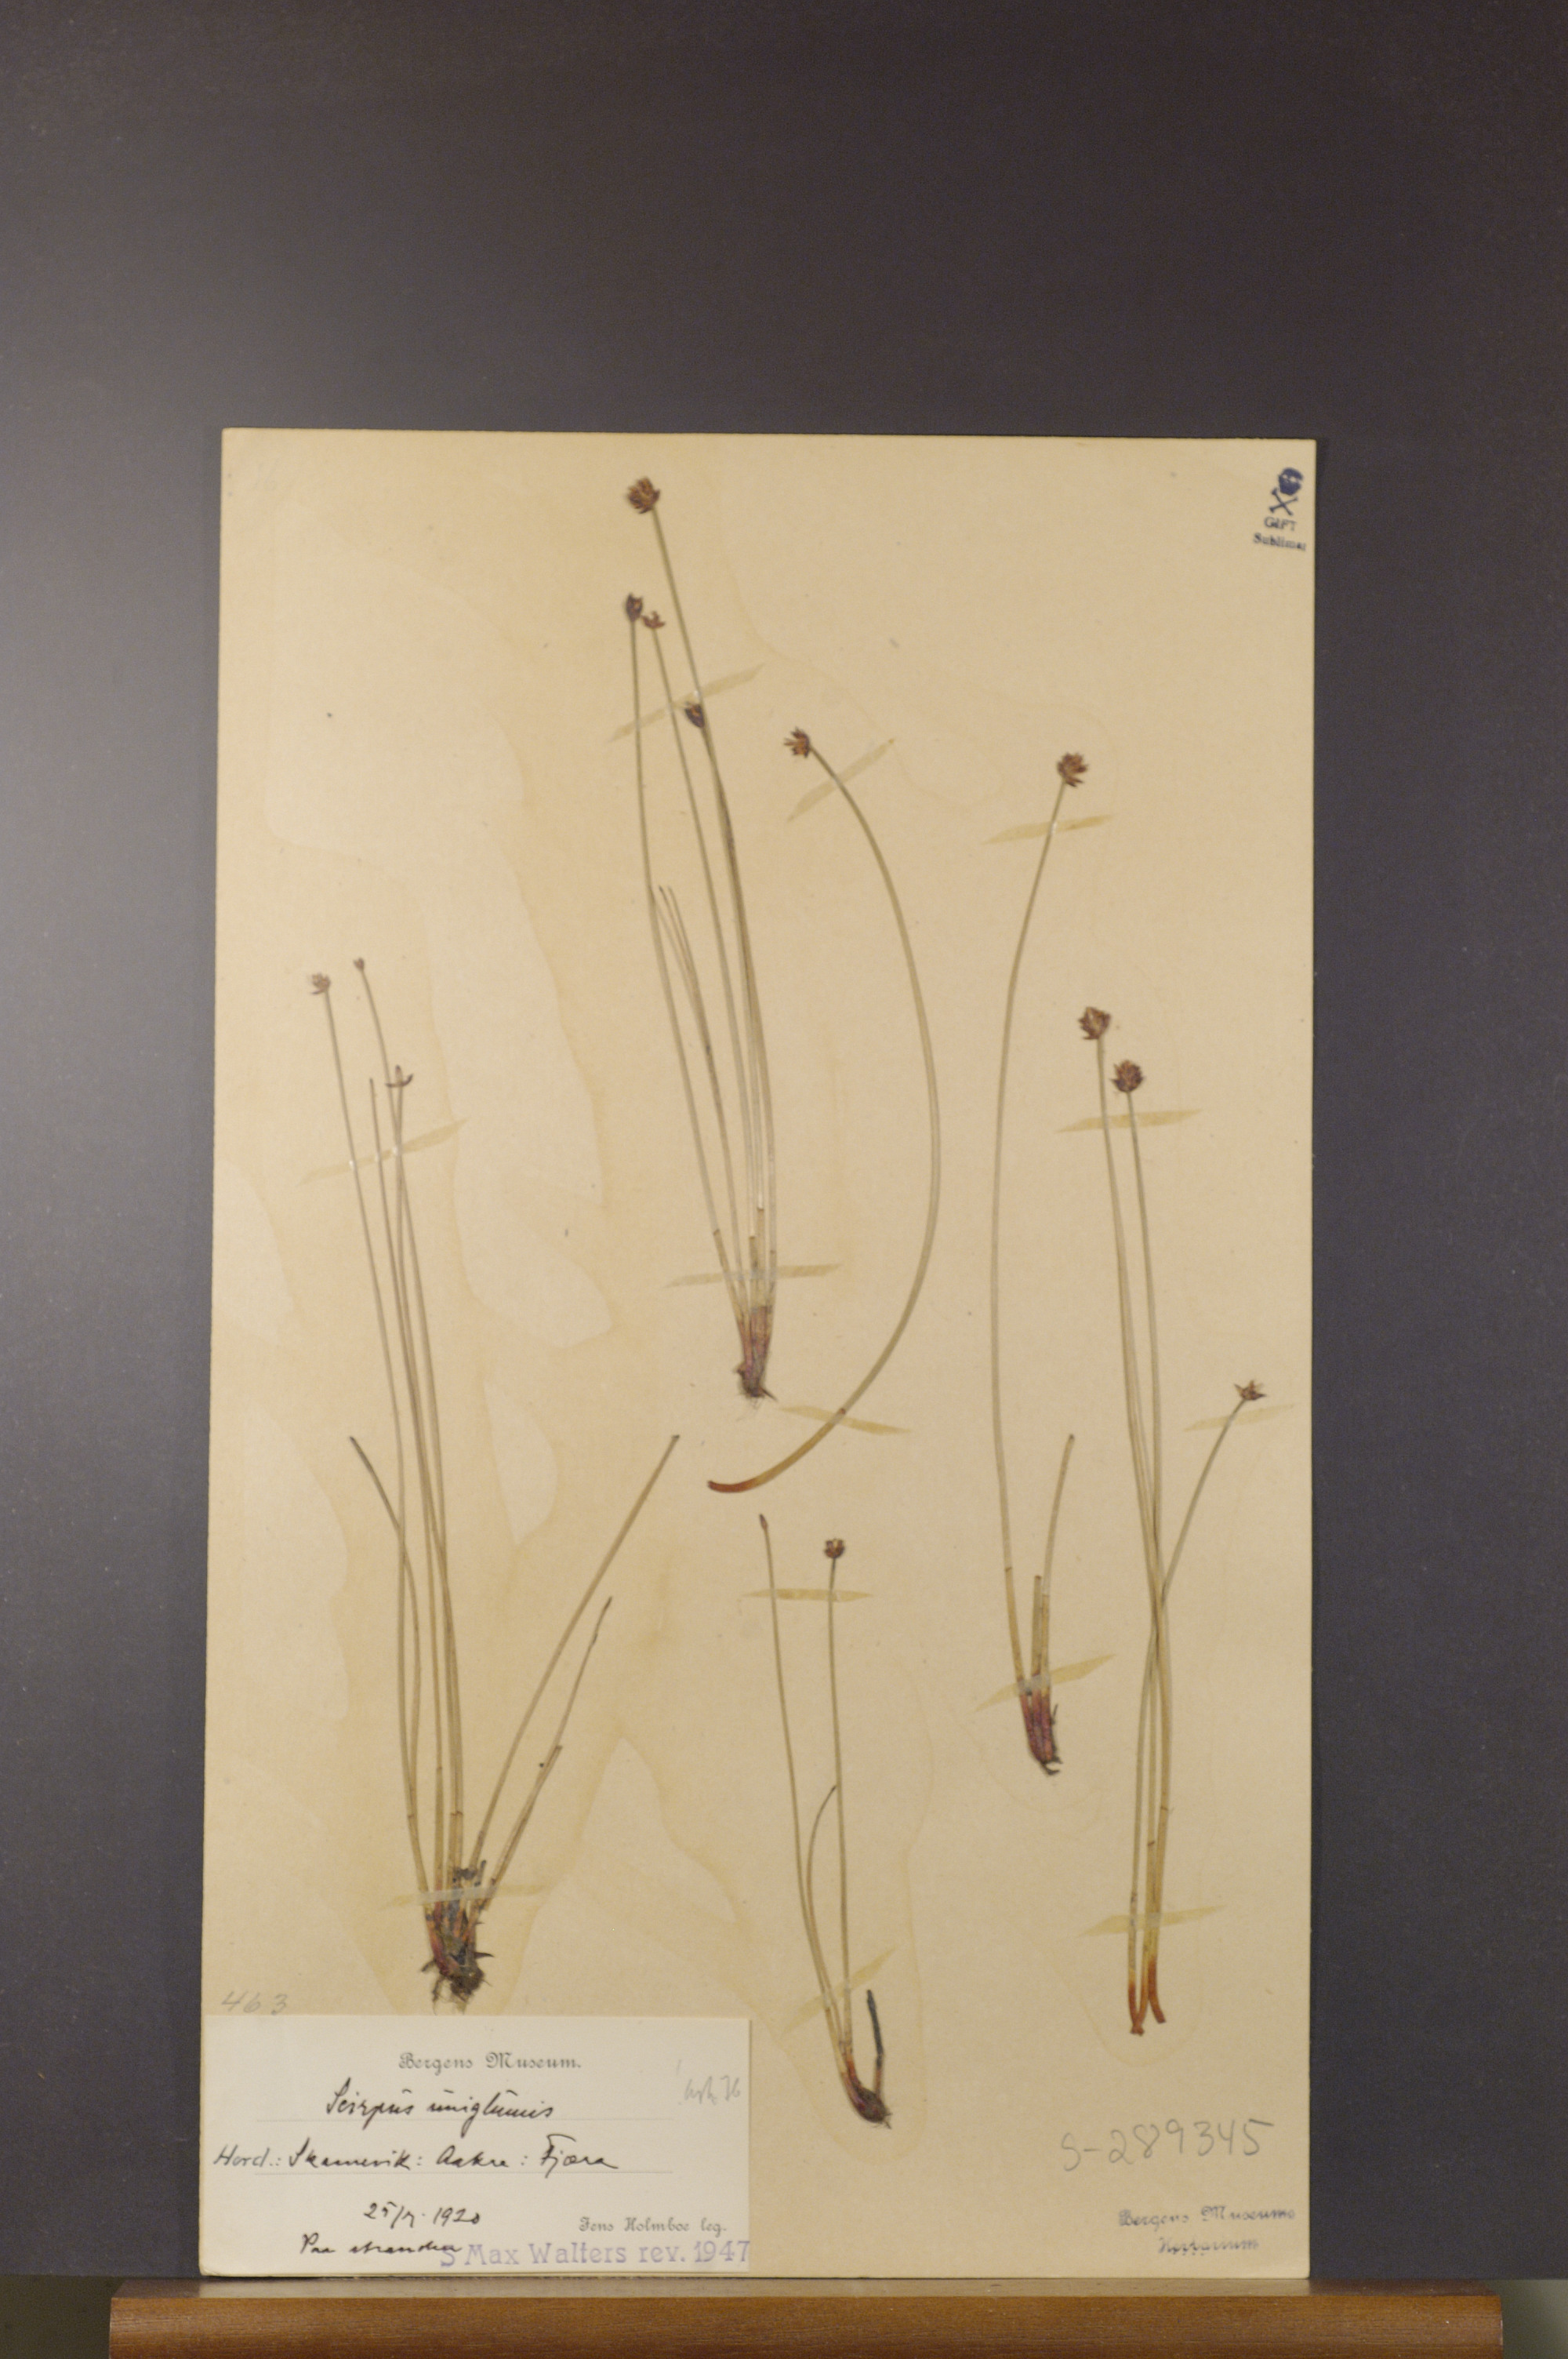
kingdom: Plantae
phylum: Tracheophyta
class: Liliopsida
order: Poales
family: Cyperaceae
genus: Eleocharis
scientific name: Eleocharis uniglumis
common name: Slender spike-rush
